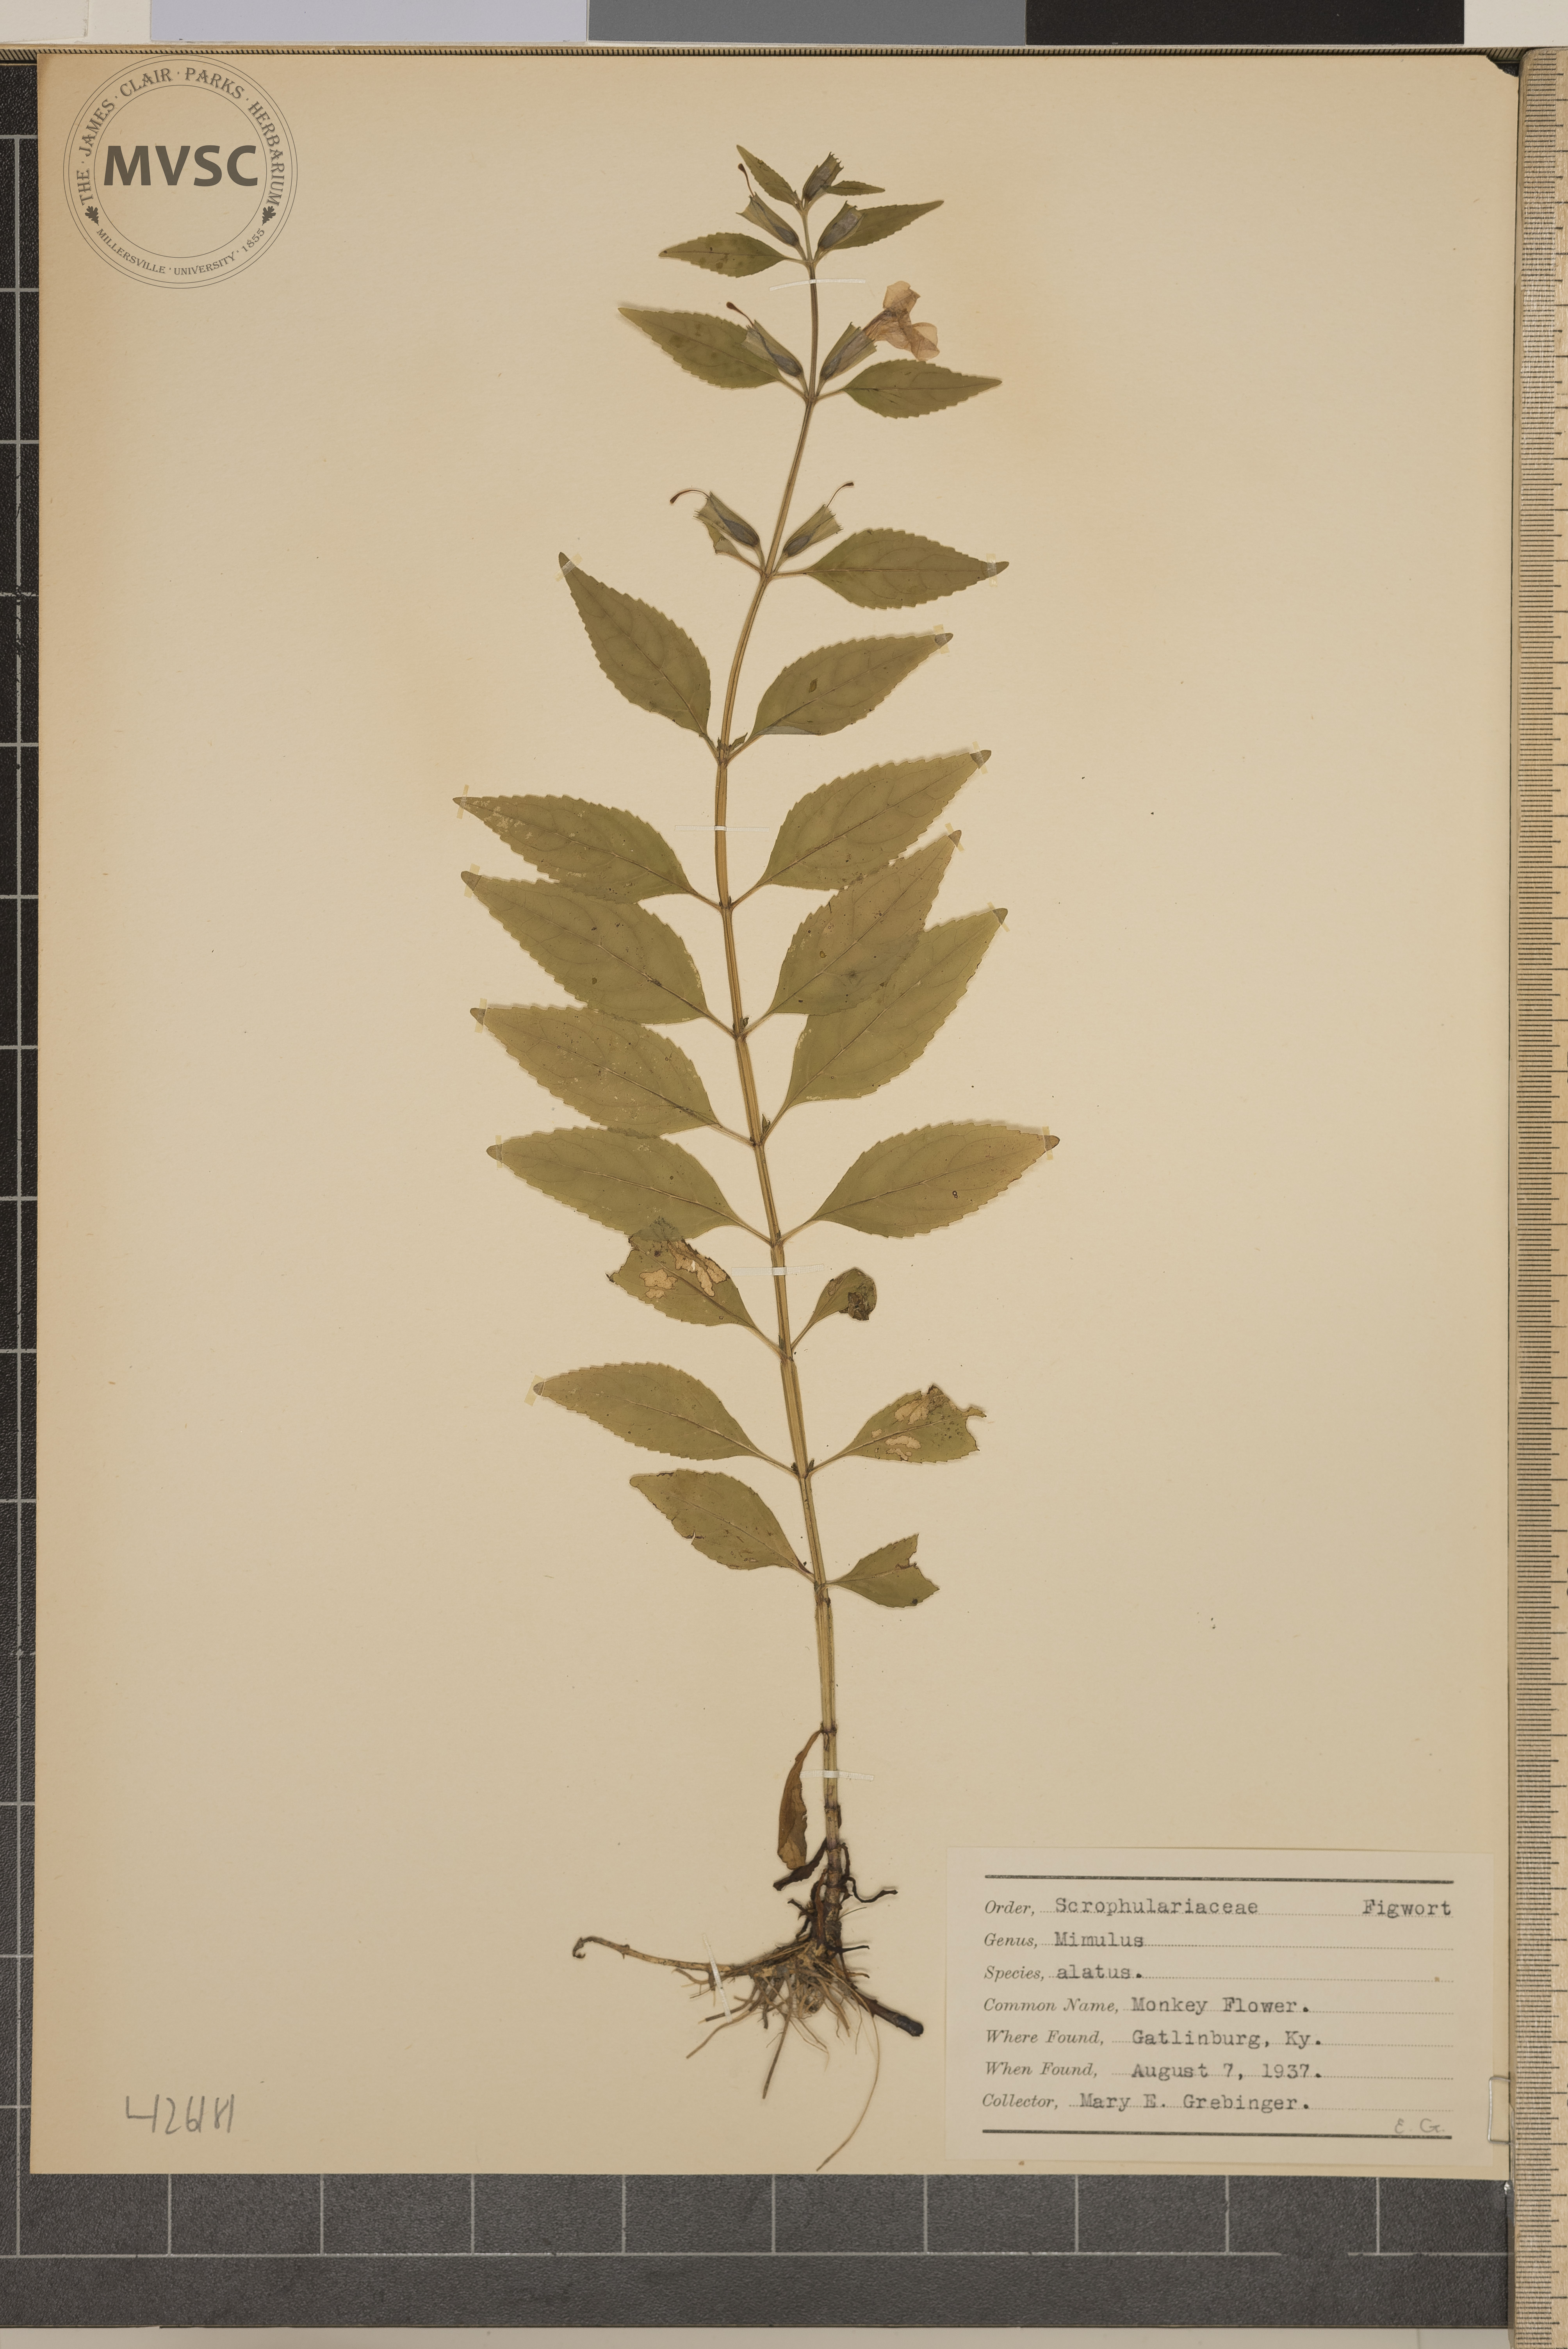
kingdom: Plantae
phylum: Tracheophyta
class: Magnoliopsida
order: Lamiales
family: Phrymaceae
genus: Mimulus
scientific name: Mimulus alatus
